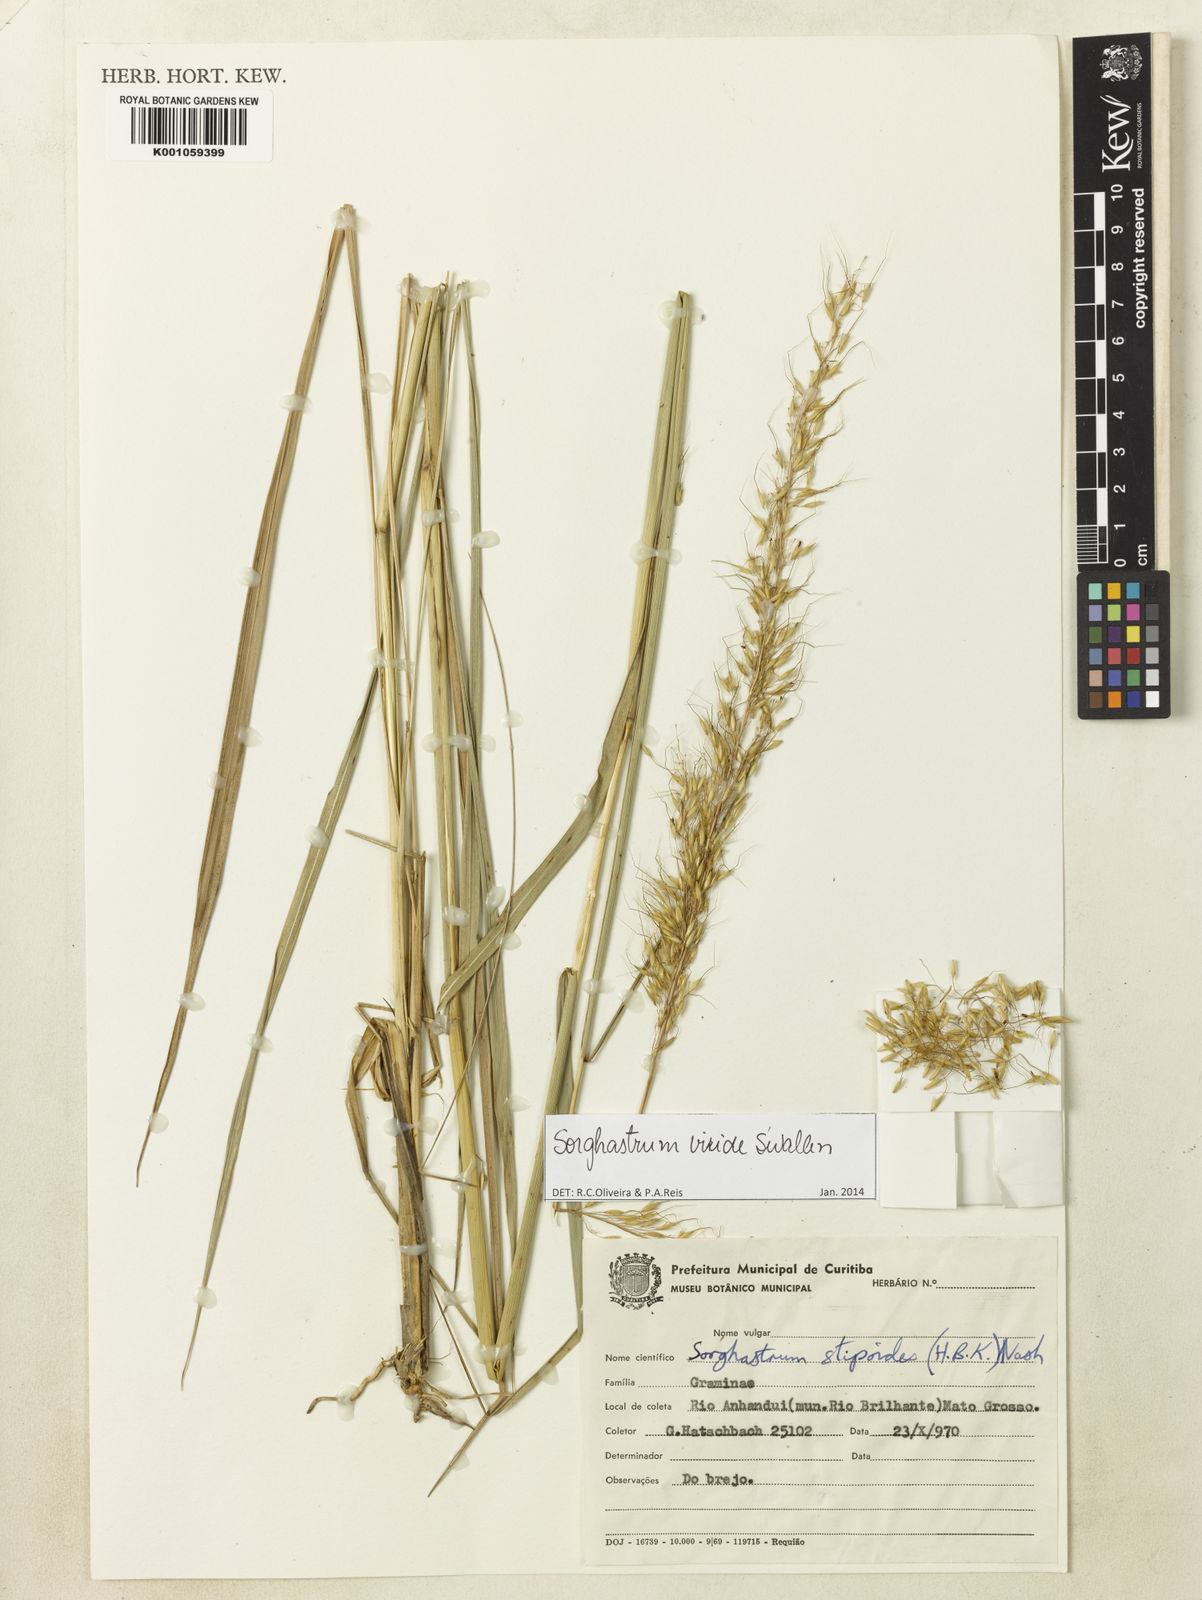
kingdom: Plantae
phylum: Tracheophyta
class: Liliopsida
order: Poales
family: Poaceae
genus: Sorghastrum
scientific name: Sorghastrum viride
